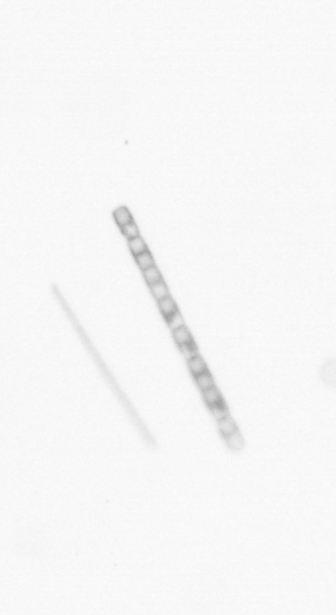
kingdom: Chromista
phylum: Ochrophyta
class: Bacillariophyceae
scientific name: Bacillariophyceae
